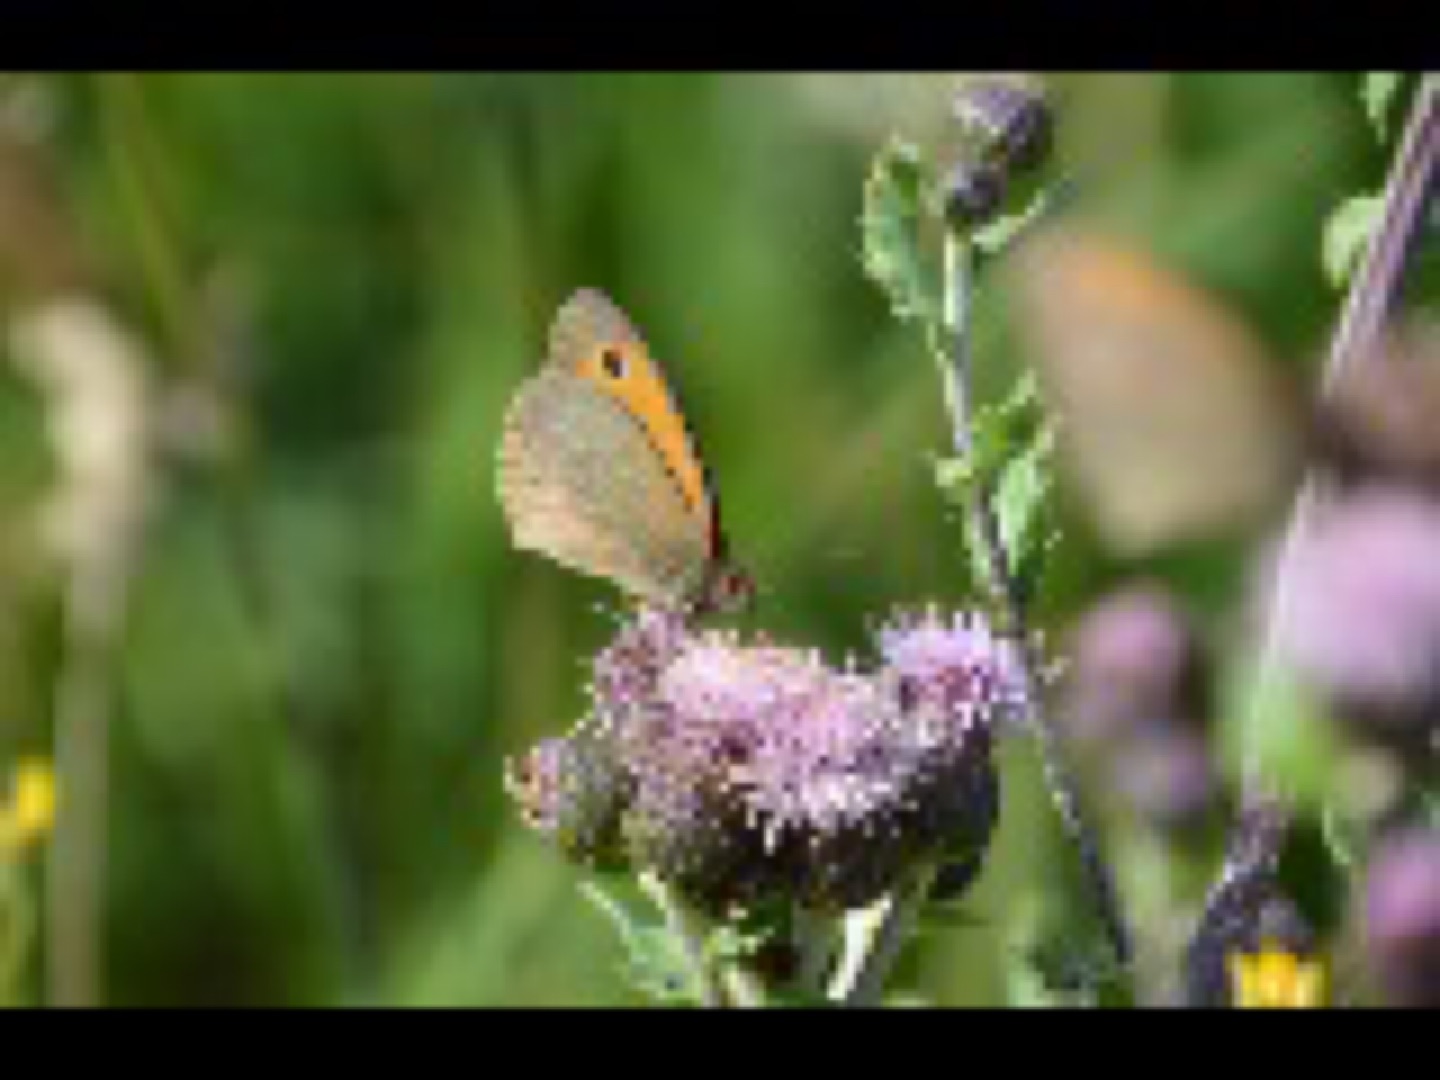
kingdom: Animalia
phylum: Arthropoda
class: Insecta
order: Lepidoptera
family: Nymphalidae
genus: Maniola
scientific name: Maniola jurtina
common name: Græsrandøje
